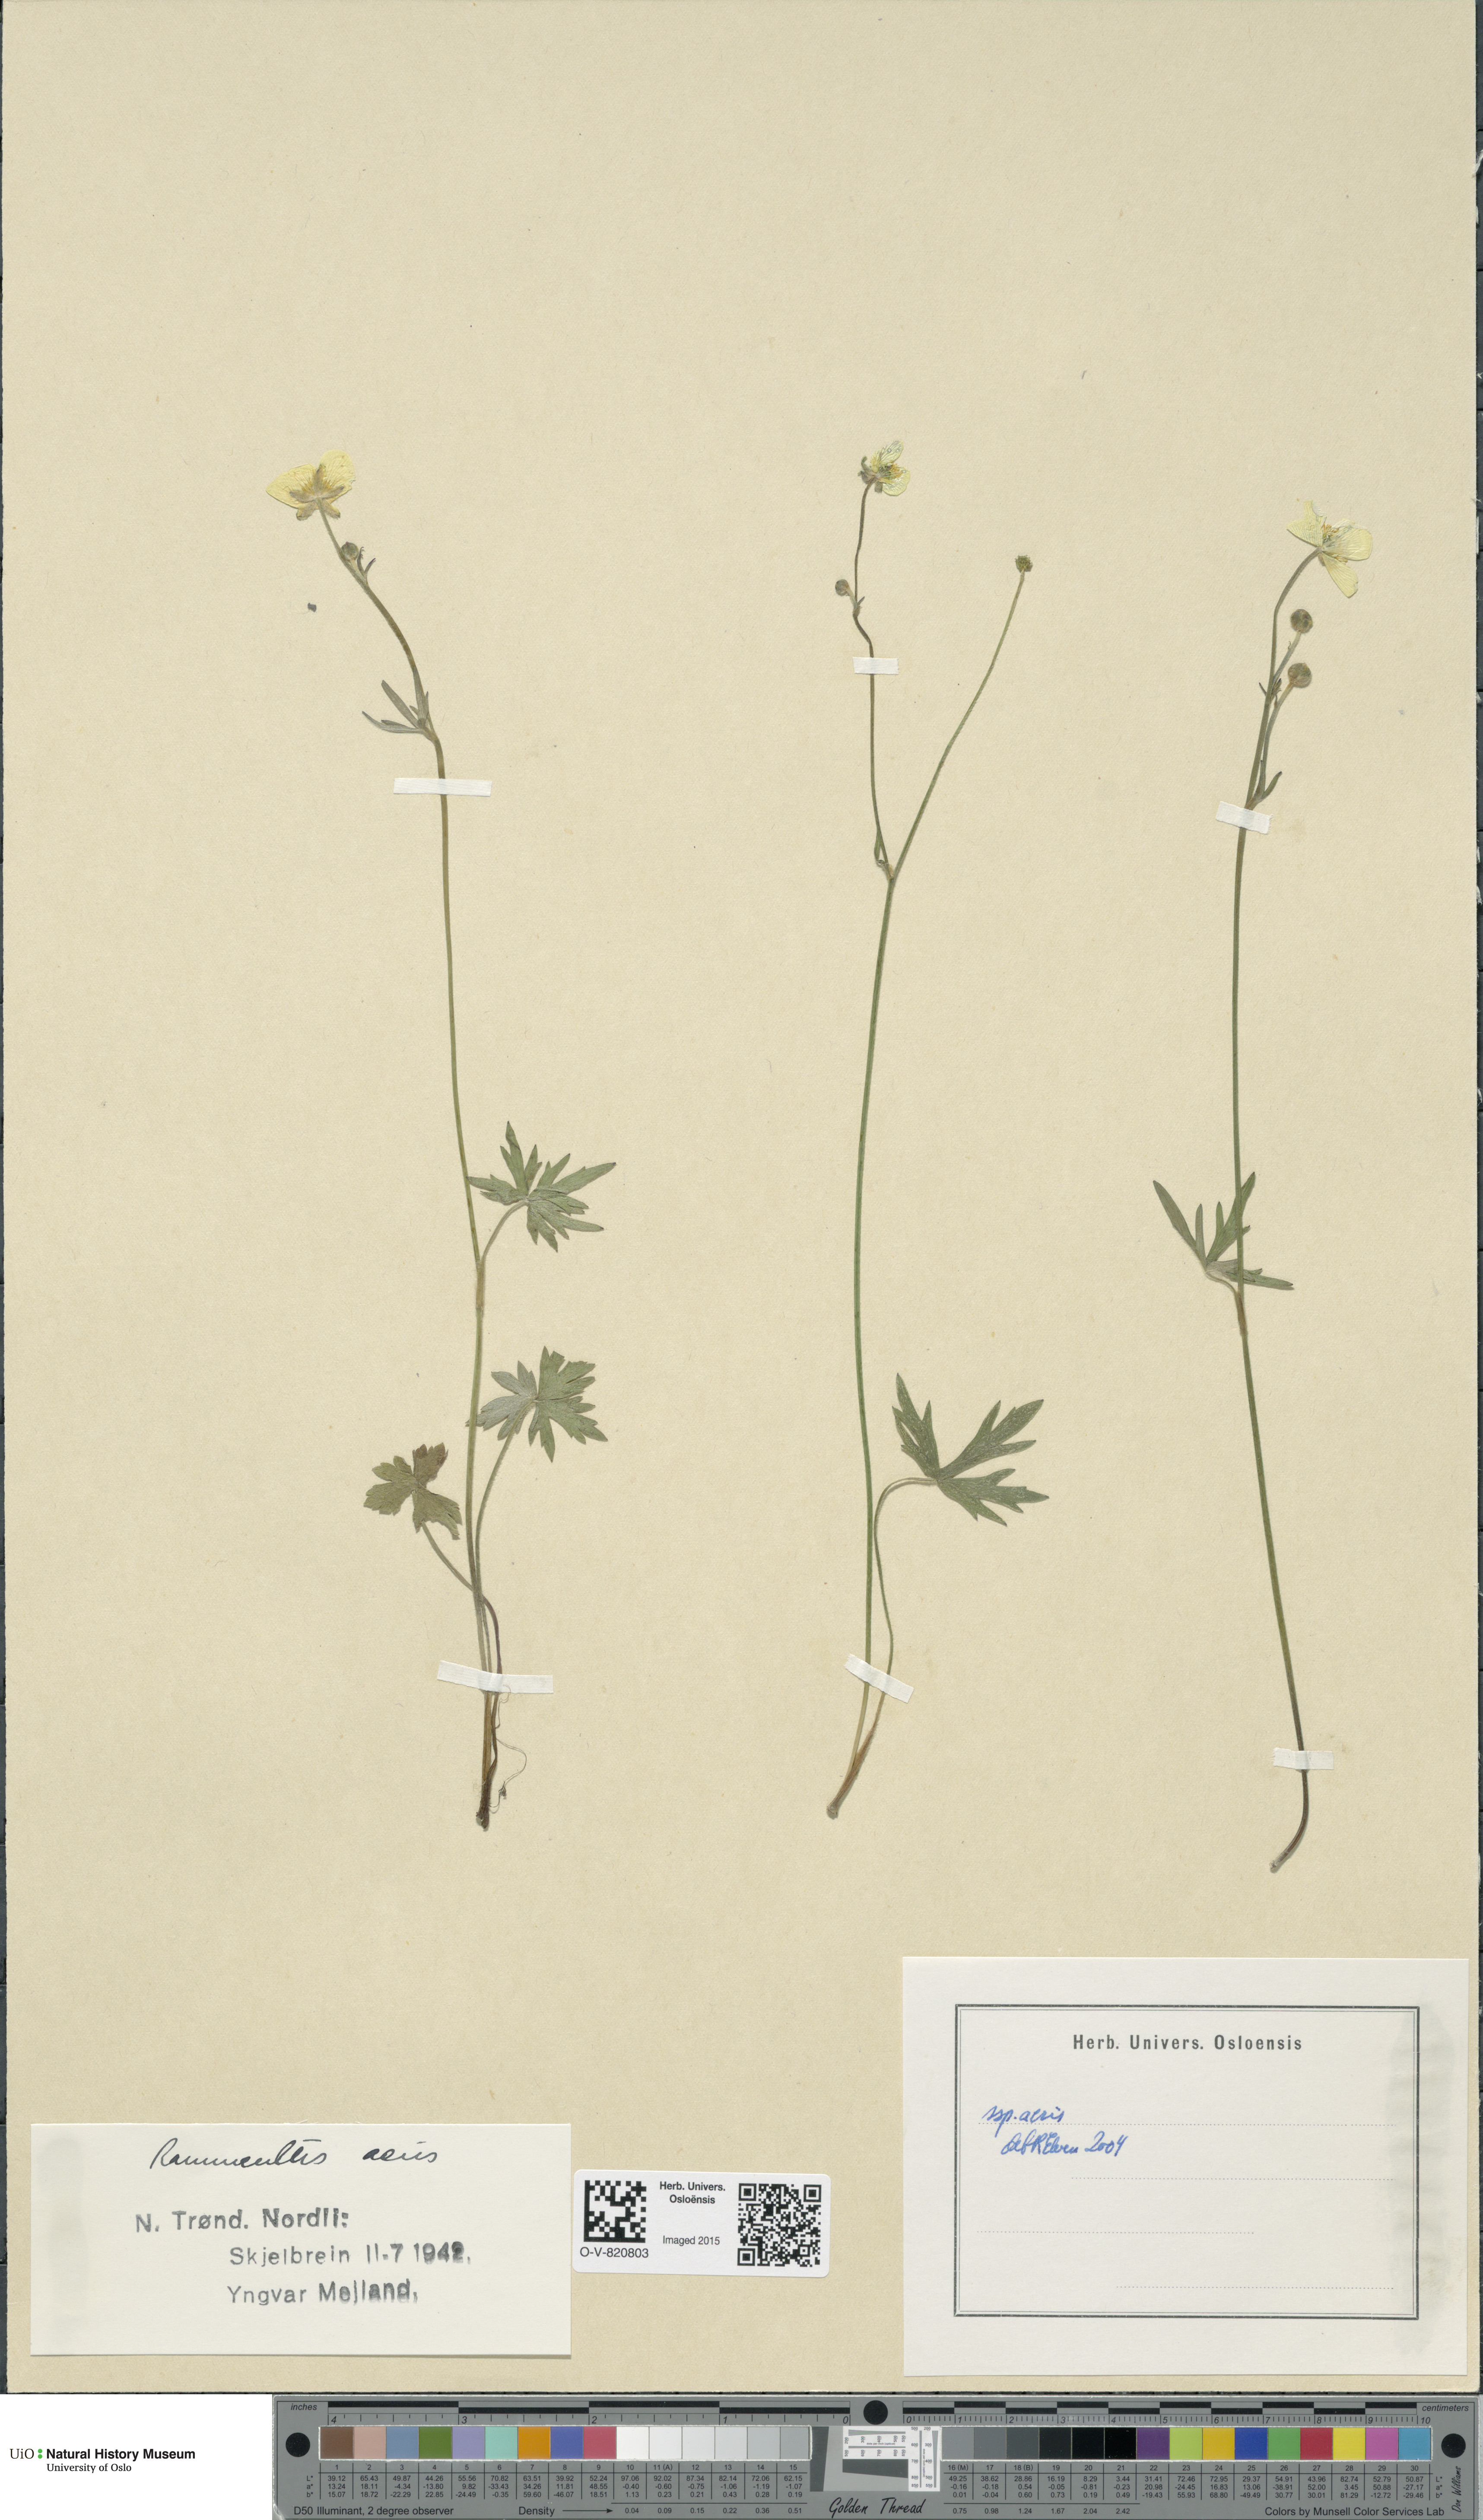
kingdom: Plantae
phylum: Tracheophyta
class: Magnoliopsida
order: Ranunculales
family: Ranunculaceae
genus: Ranunculus
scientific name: Ranunculus acris
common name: Meadow buttercup
